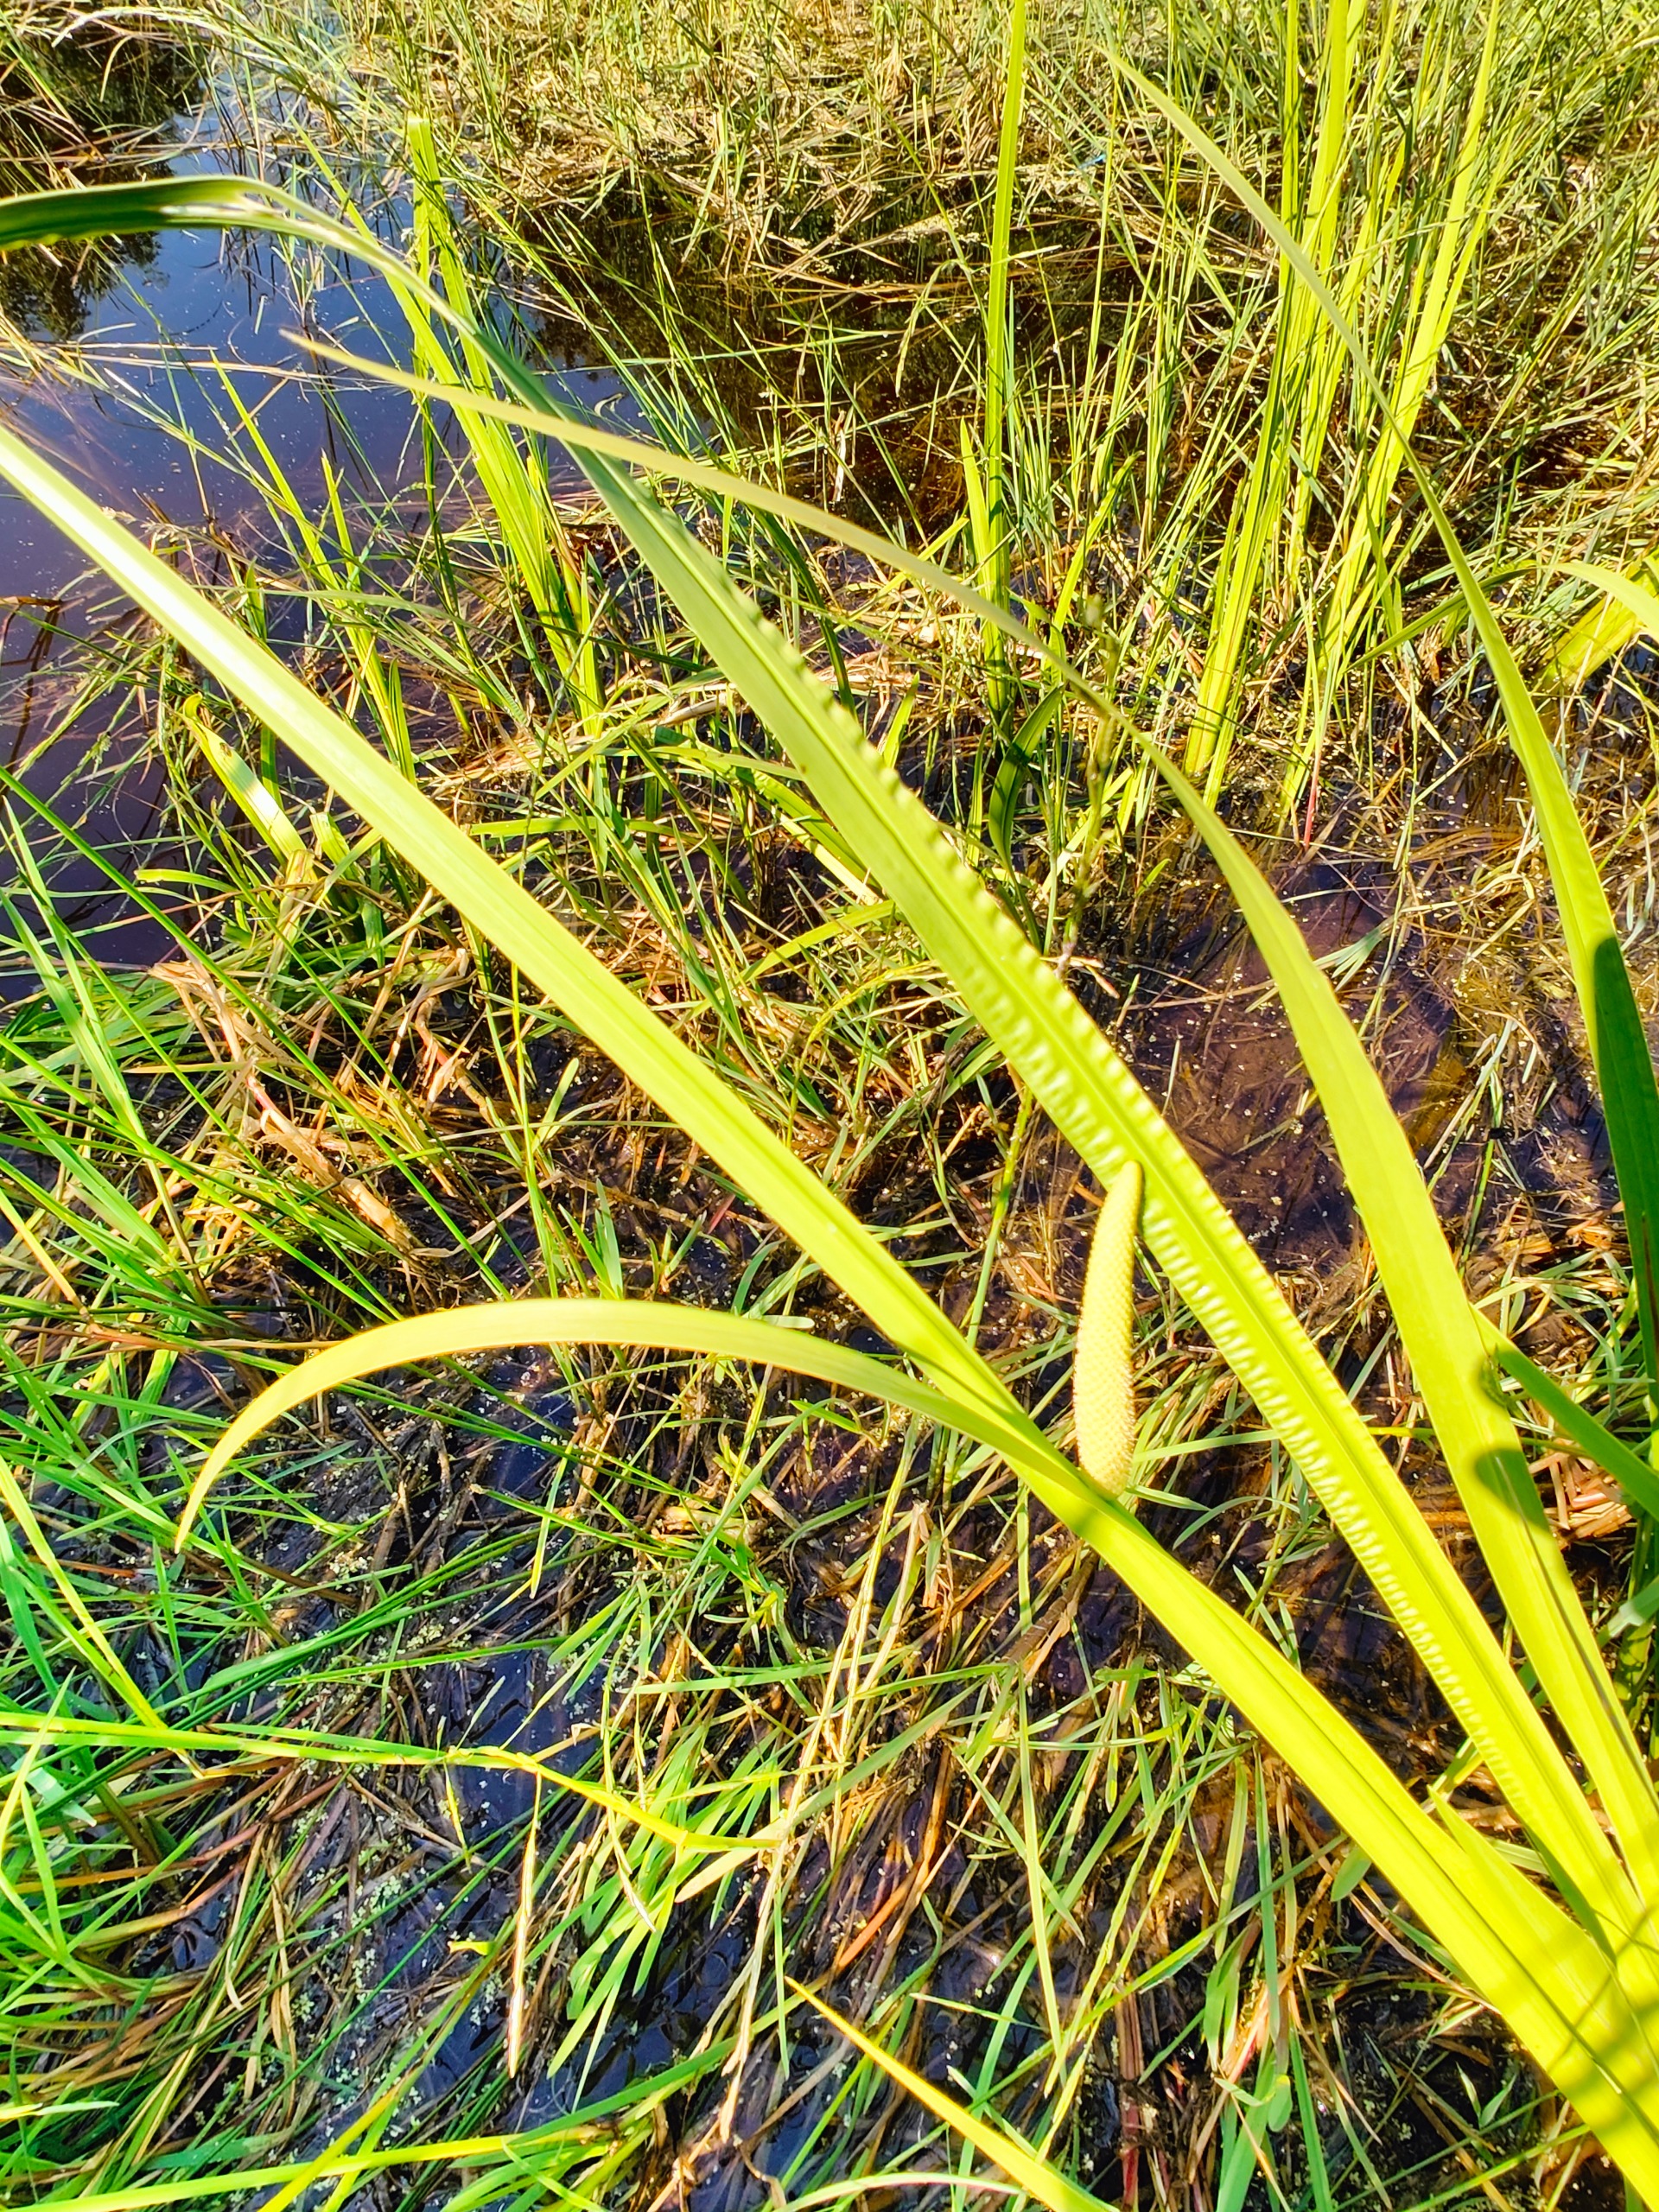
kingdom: Plantae
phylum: Tracheophyta
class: Liliopsida
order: Acorales
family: Acoraceae
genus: Acorus
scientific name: Acorus calamus
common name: Kalmus
